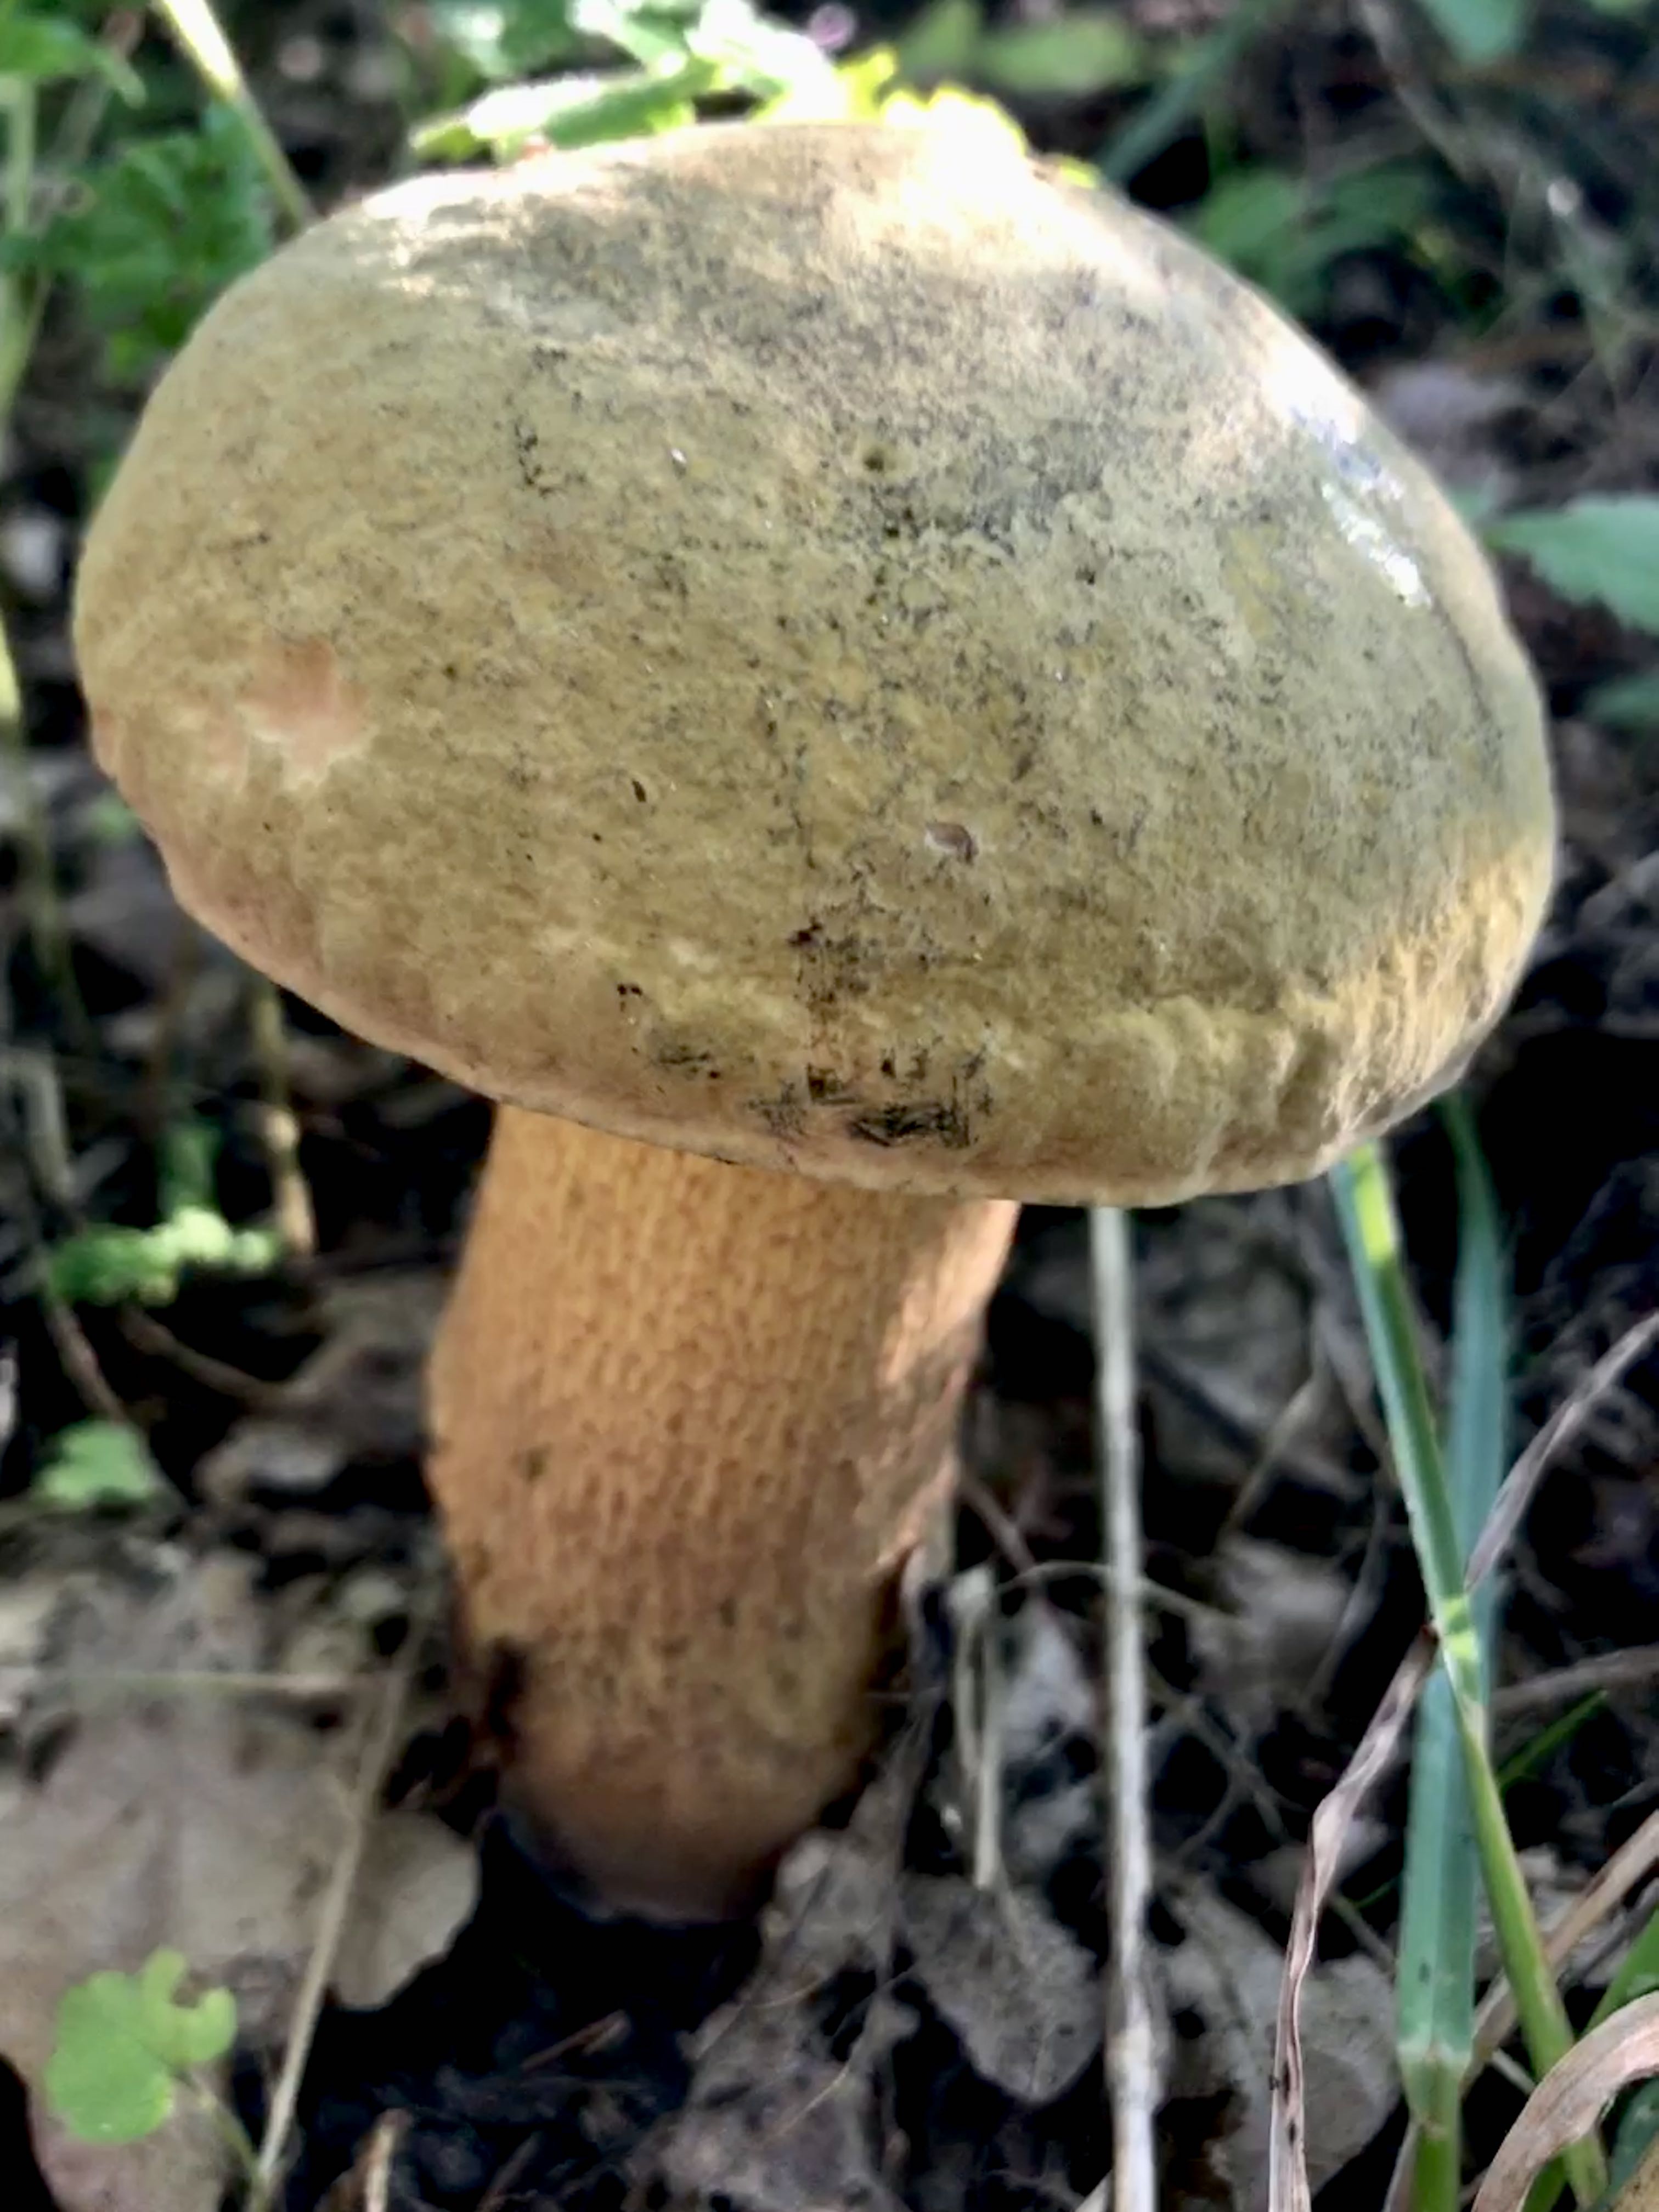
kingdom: Fungi
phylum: Basidiomycota
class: Agaricomycetes
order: Boletales
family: Boletaceae
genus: Suillellus
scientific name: Suillellus luridus
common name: netstokket indigorørhat
